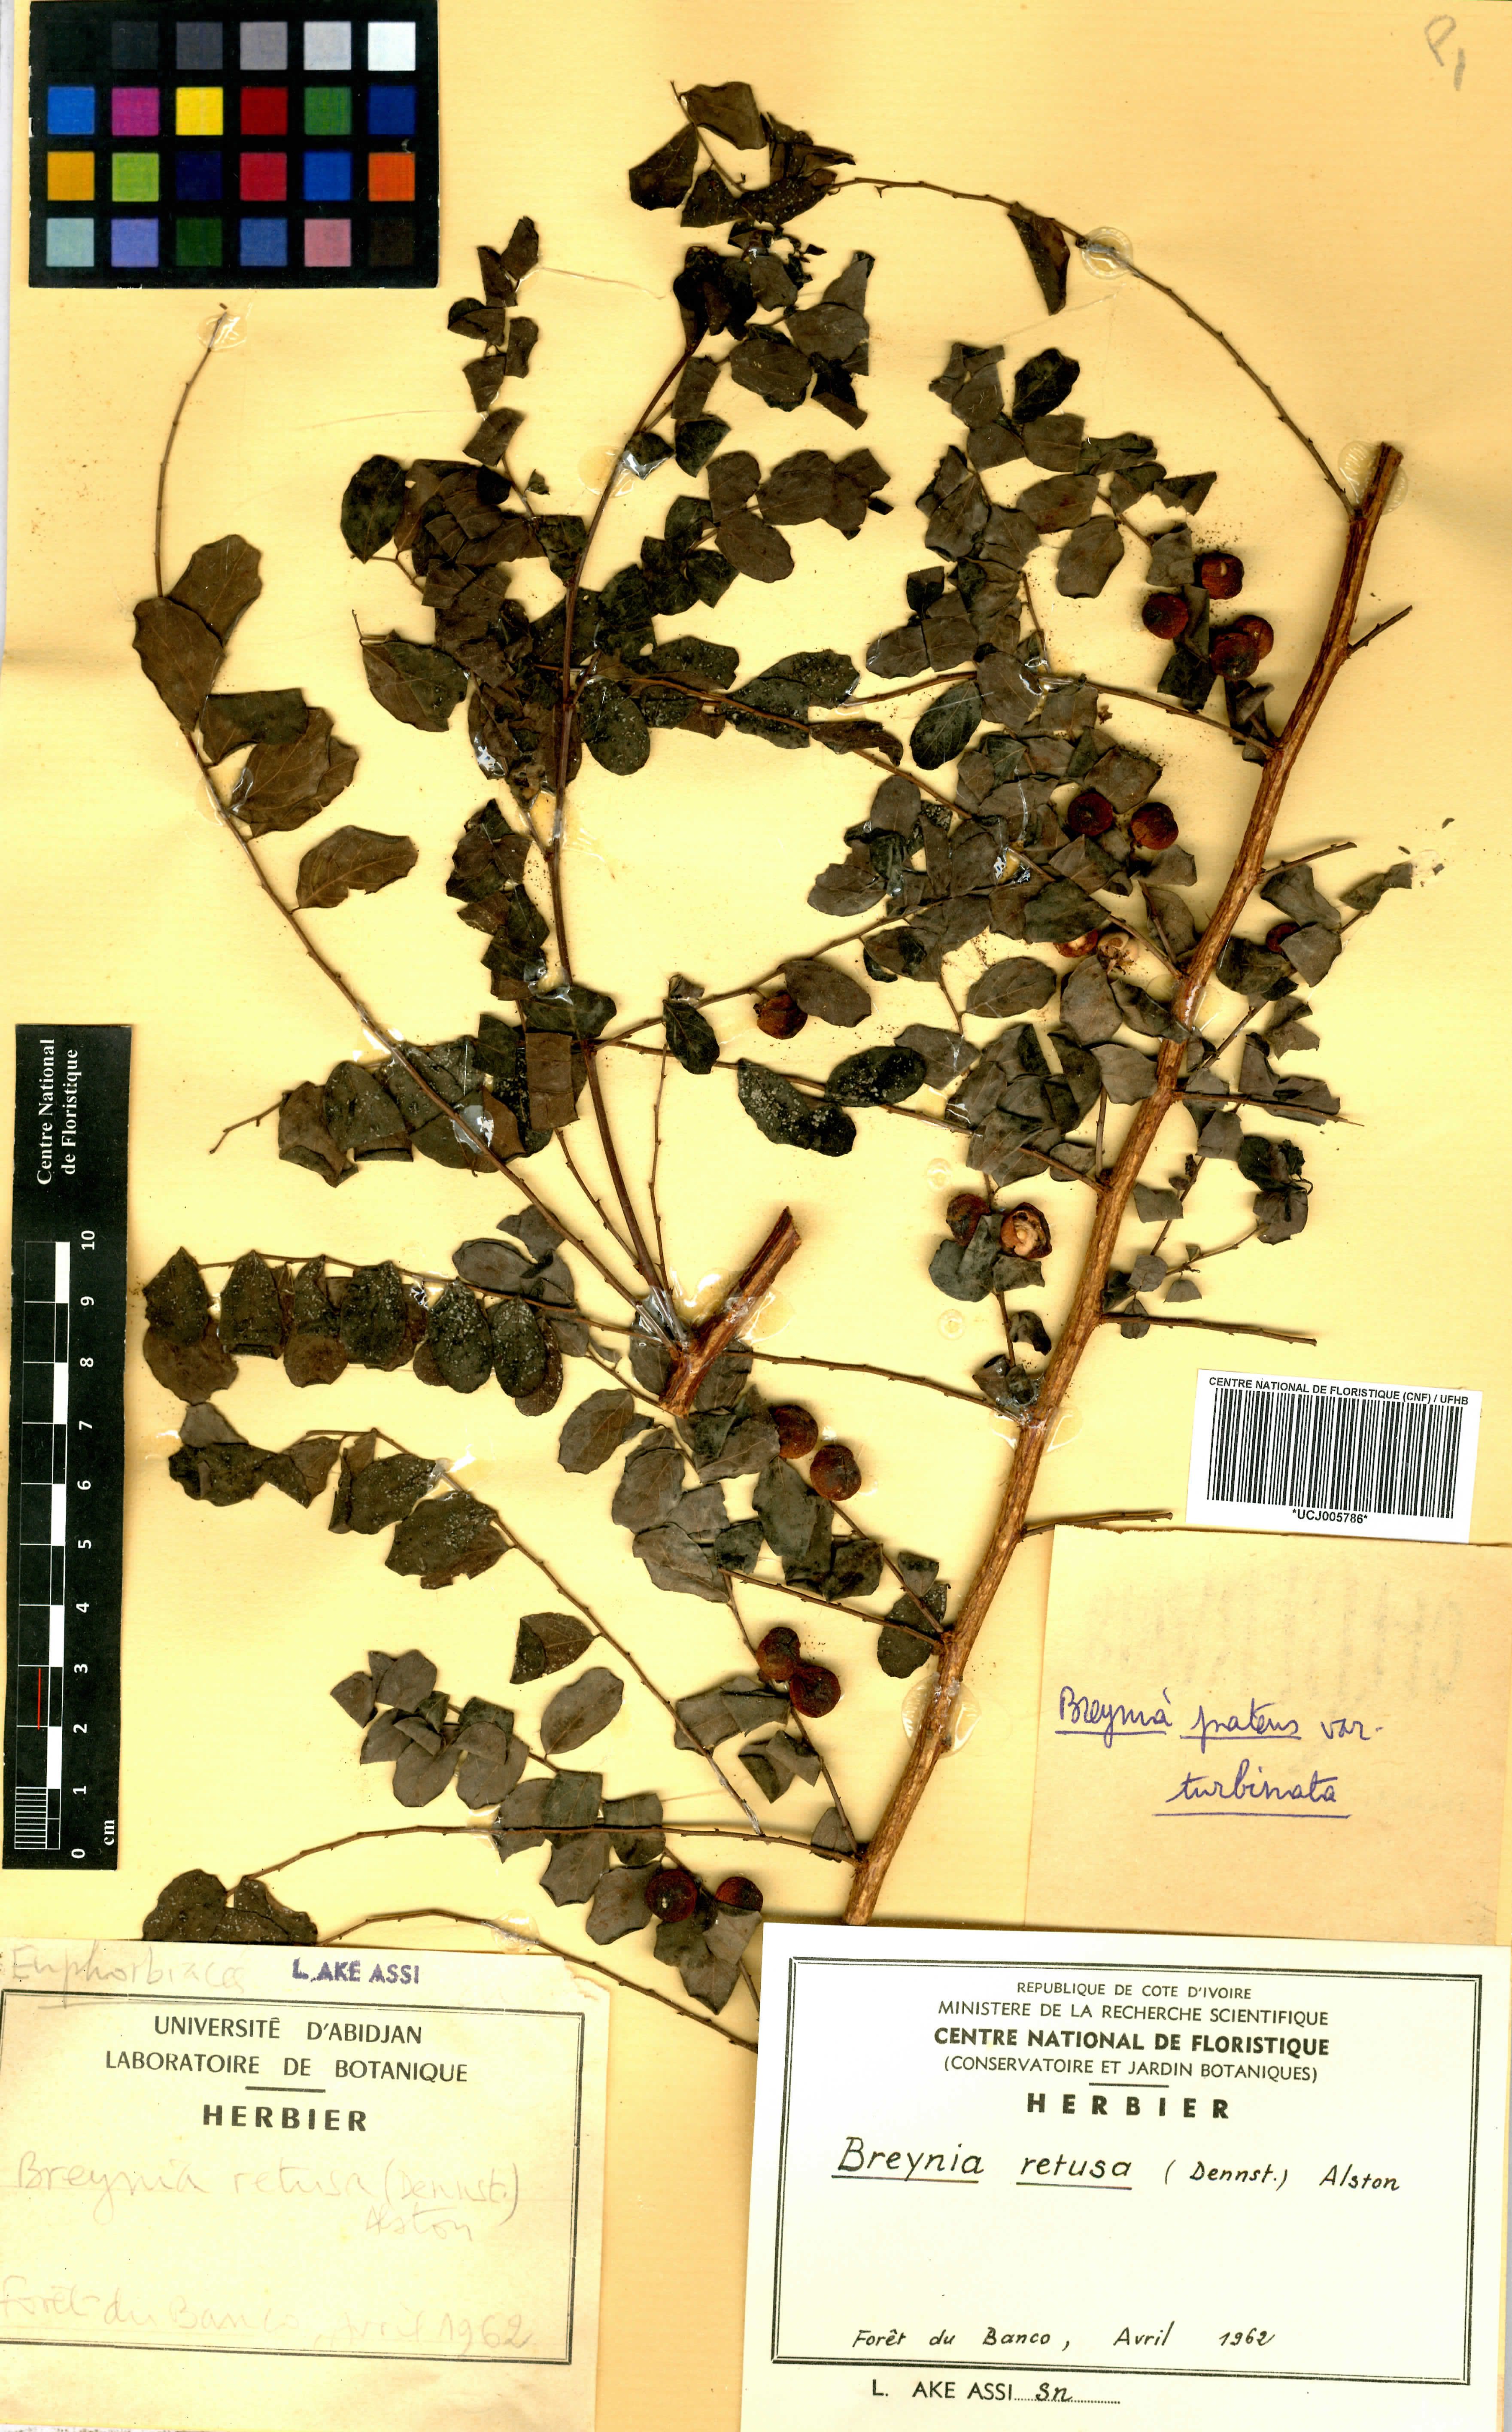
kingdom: Plantae
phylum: Tracheophyta
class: Magnoliopsida
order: Malpighiales
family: Phyllanthaceae
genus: Breynia
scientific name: Breynia retusa
